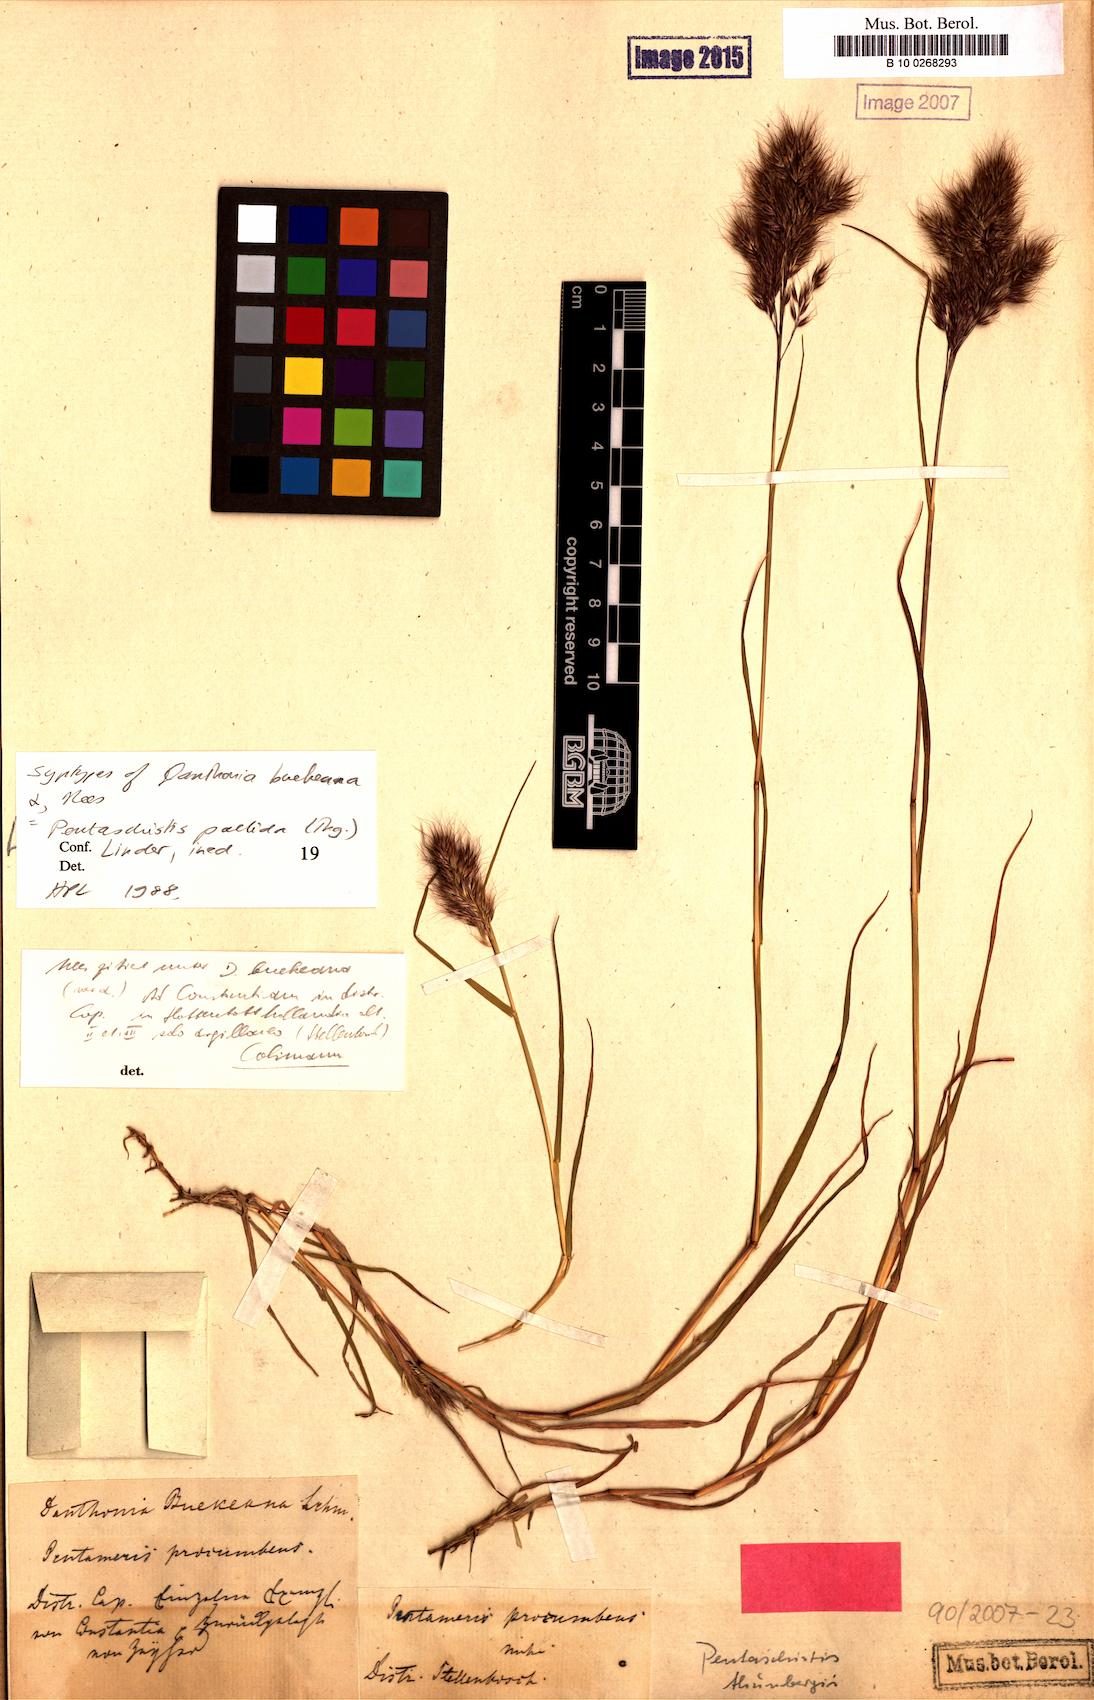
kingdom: Plantae
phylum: Tracheophyta
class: Liliopsida
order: Poales
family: Poaceae
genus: Pentameris
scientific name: Pentameris pallida
